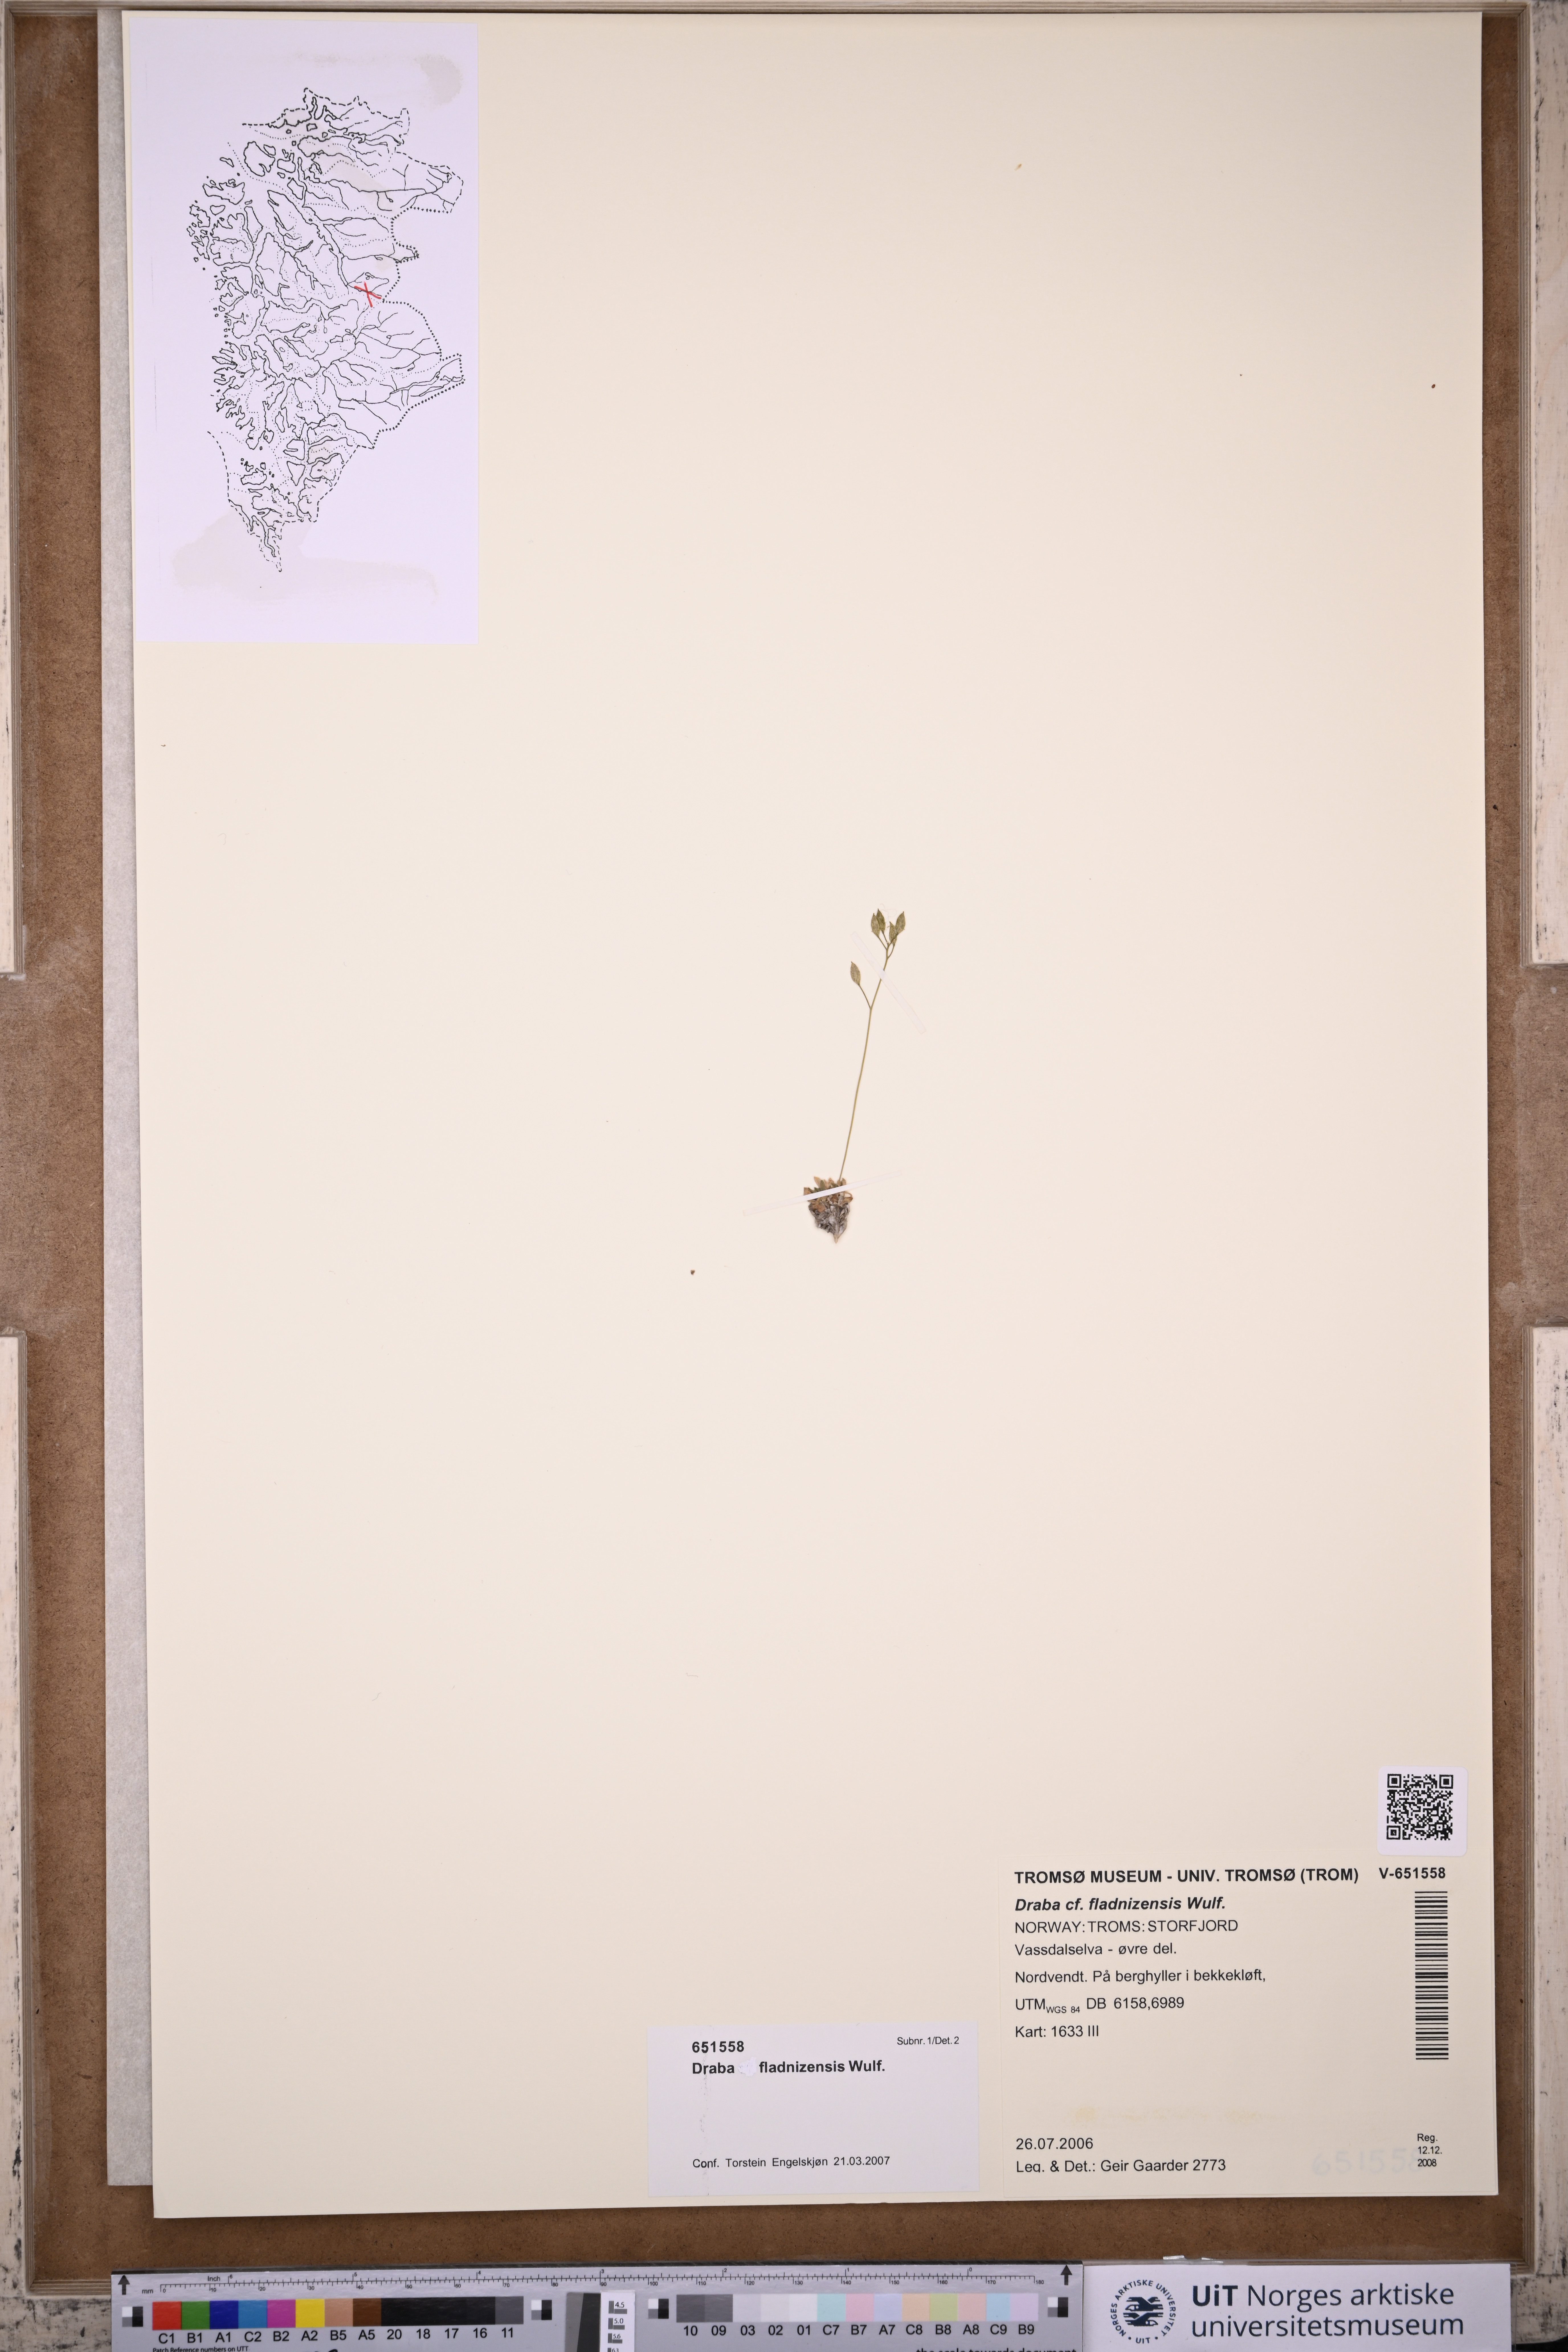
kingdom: Plantae
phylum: Tracheophyta
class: Magnoliopsida
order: Brassicales
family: Brassicaceae
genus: Draba
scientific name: Draba fladnizensis
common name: Austrian draba
